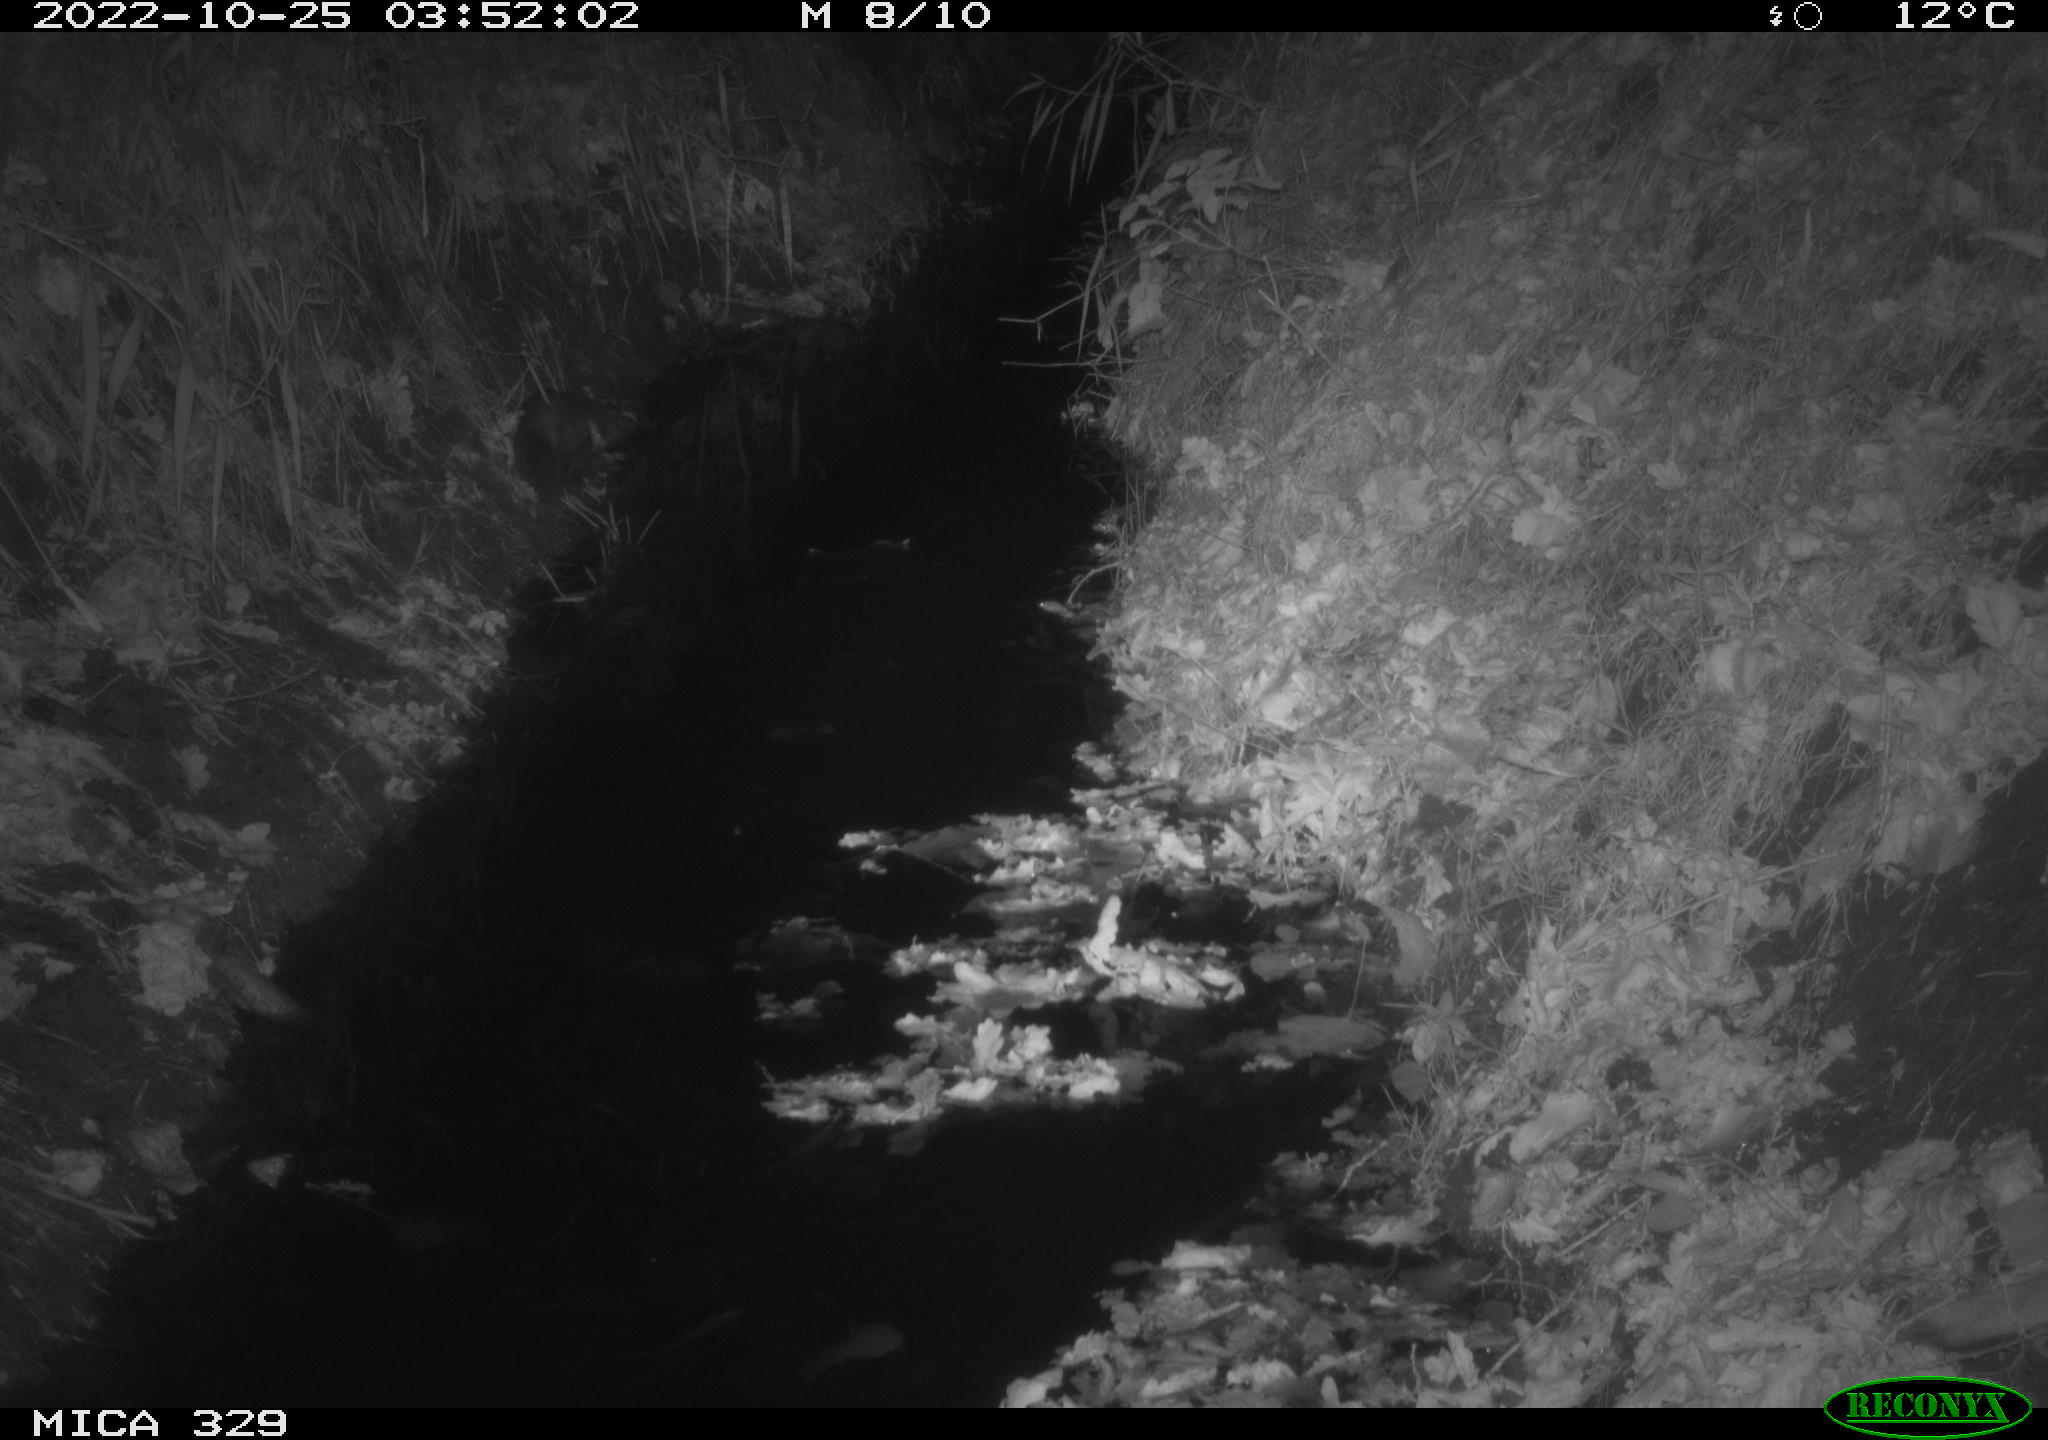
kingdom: Animalia
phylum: Chordata
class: Mammalia
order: Carnivora
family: Mustelidae
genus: Martes
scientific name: Martes
